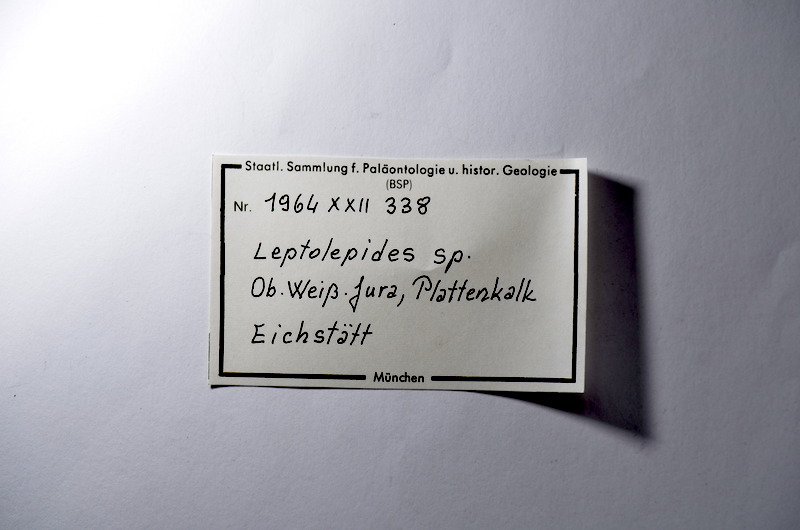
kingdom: Animalia
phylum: Chordata
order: Salmoniformes
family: Orthogonikleithridae
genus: Leptolepides
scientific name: Leptolepides
